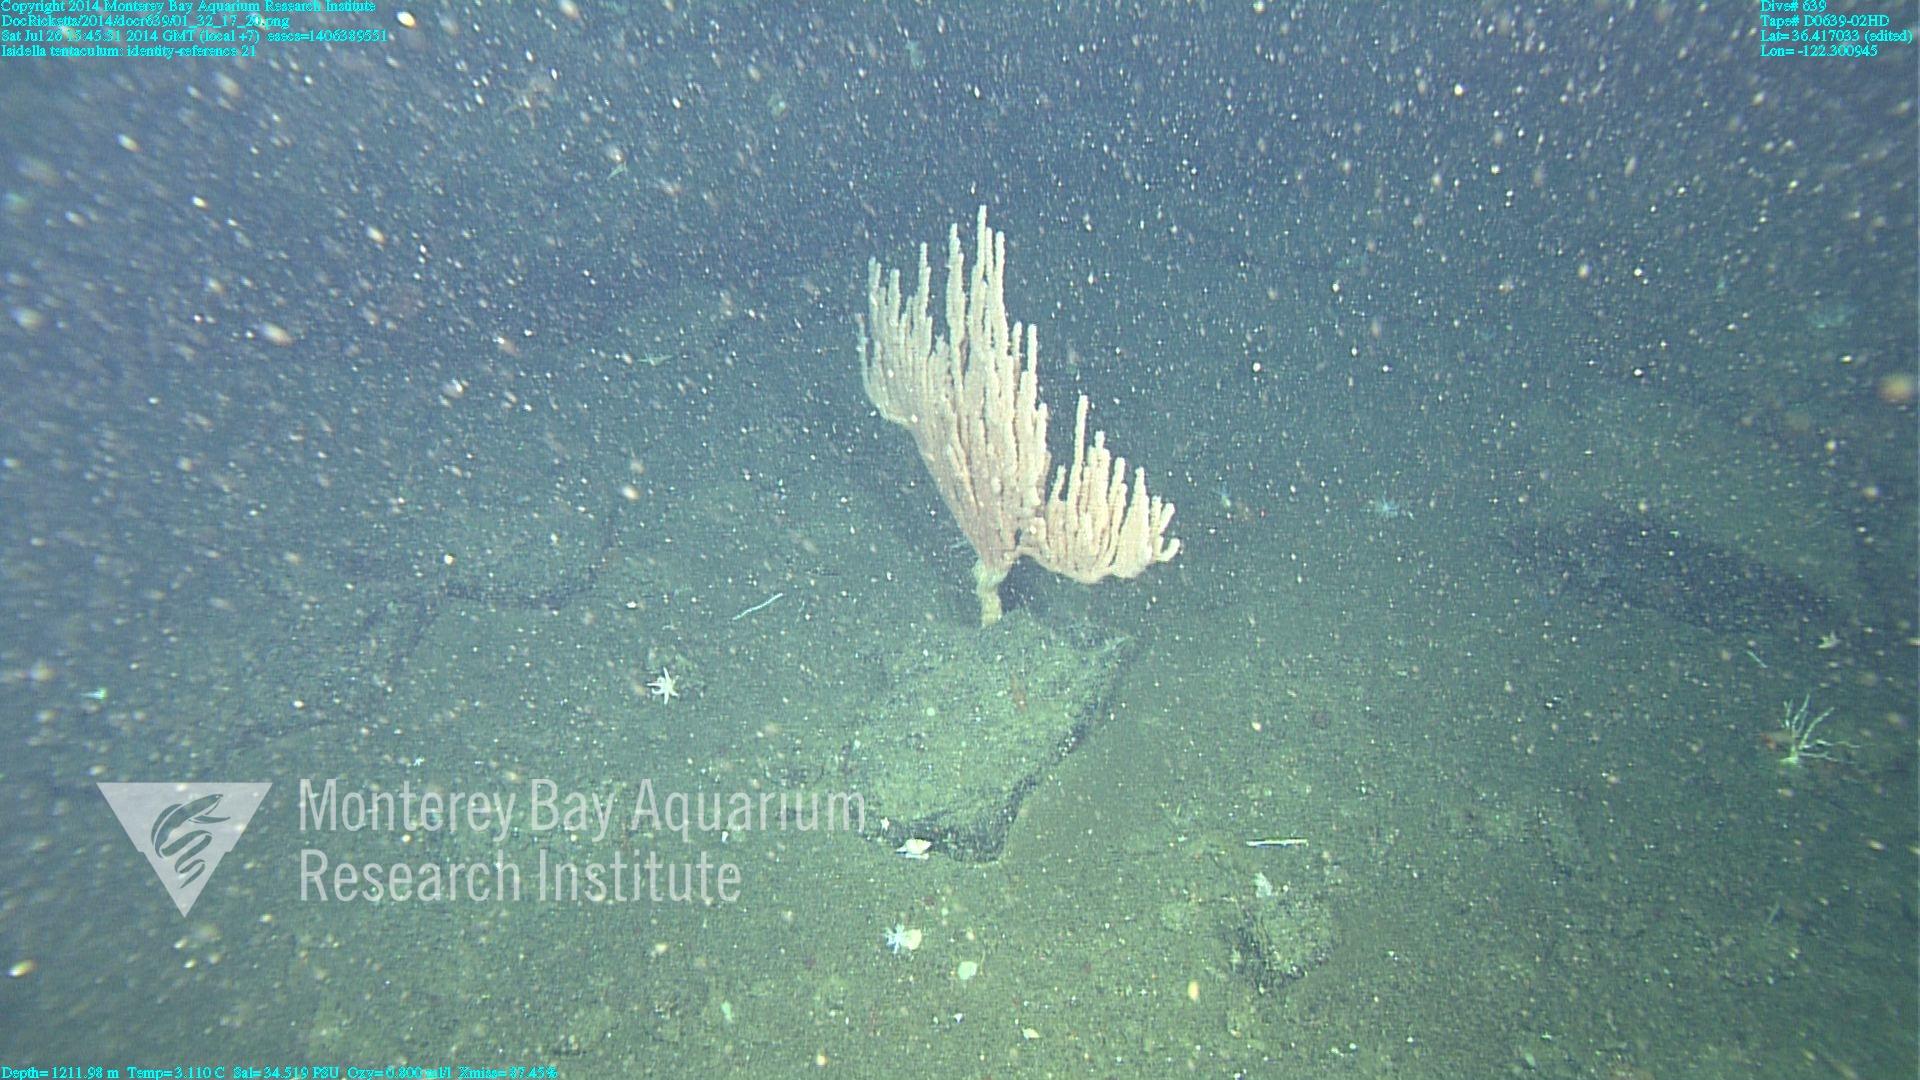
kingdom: Animalia
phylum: Cnidaria
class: Anthozoa
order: Scleralcyonacea
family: Keratoisididae
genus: Isidella
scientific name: Isidella tentaculum
